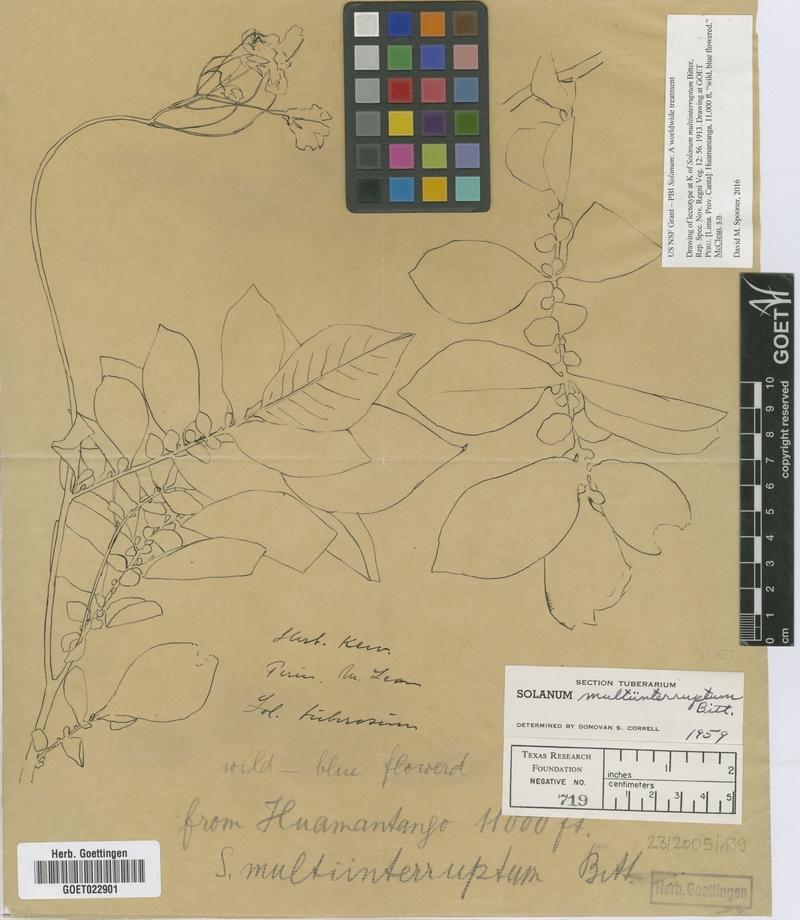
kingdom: Plantae
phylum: Tracheophyta
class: Magnoliopsida
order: Solanales
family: Solanaceae
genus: Solanum
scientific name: Solanum multiinterruptum
